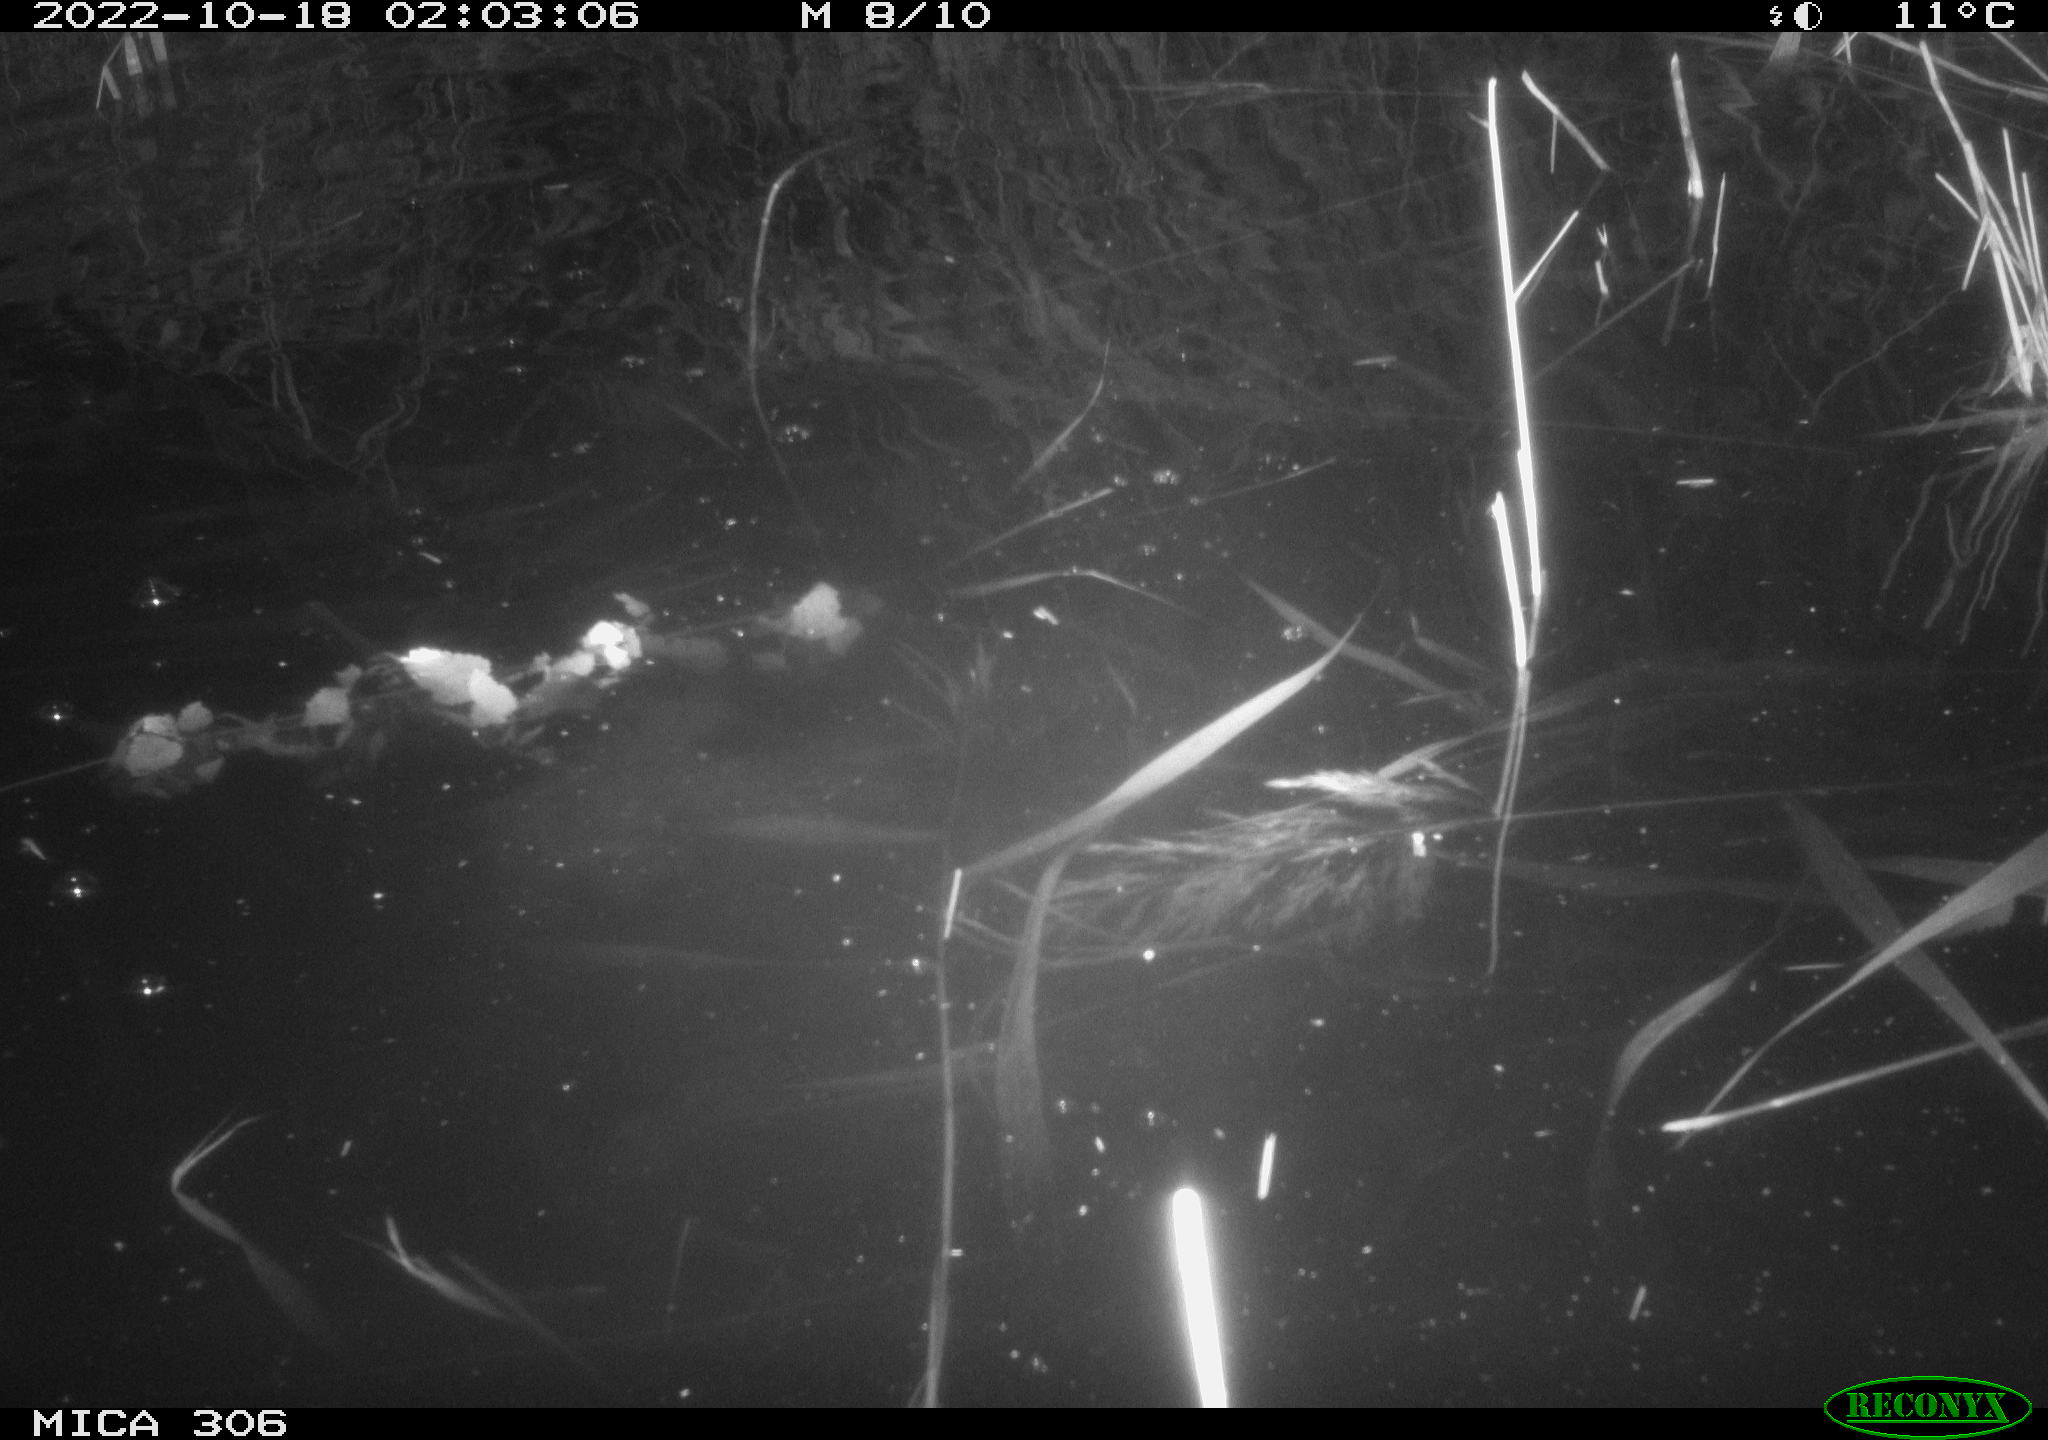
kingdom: Animalia
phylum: Chordata
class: Mammalia
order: Rodentia
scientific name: Rodentia
